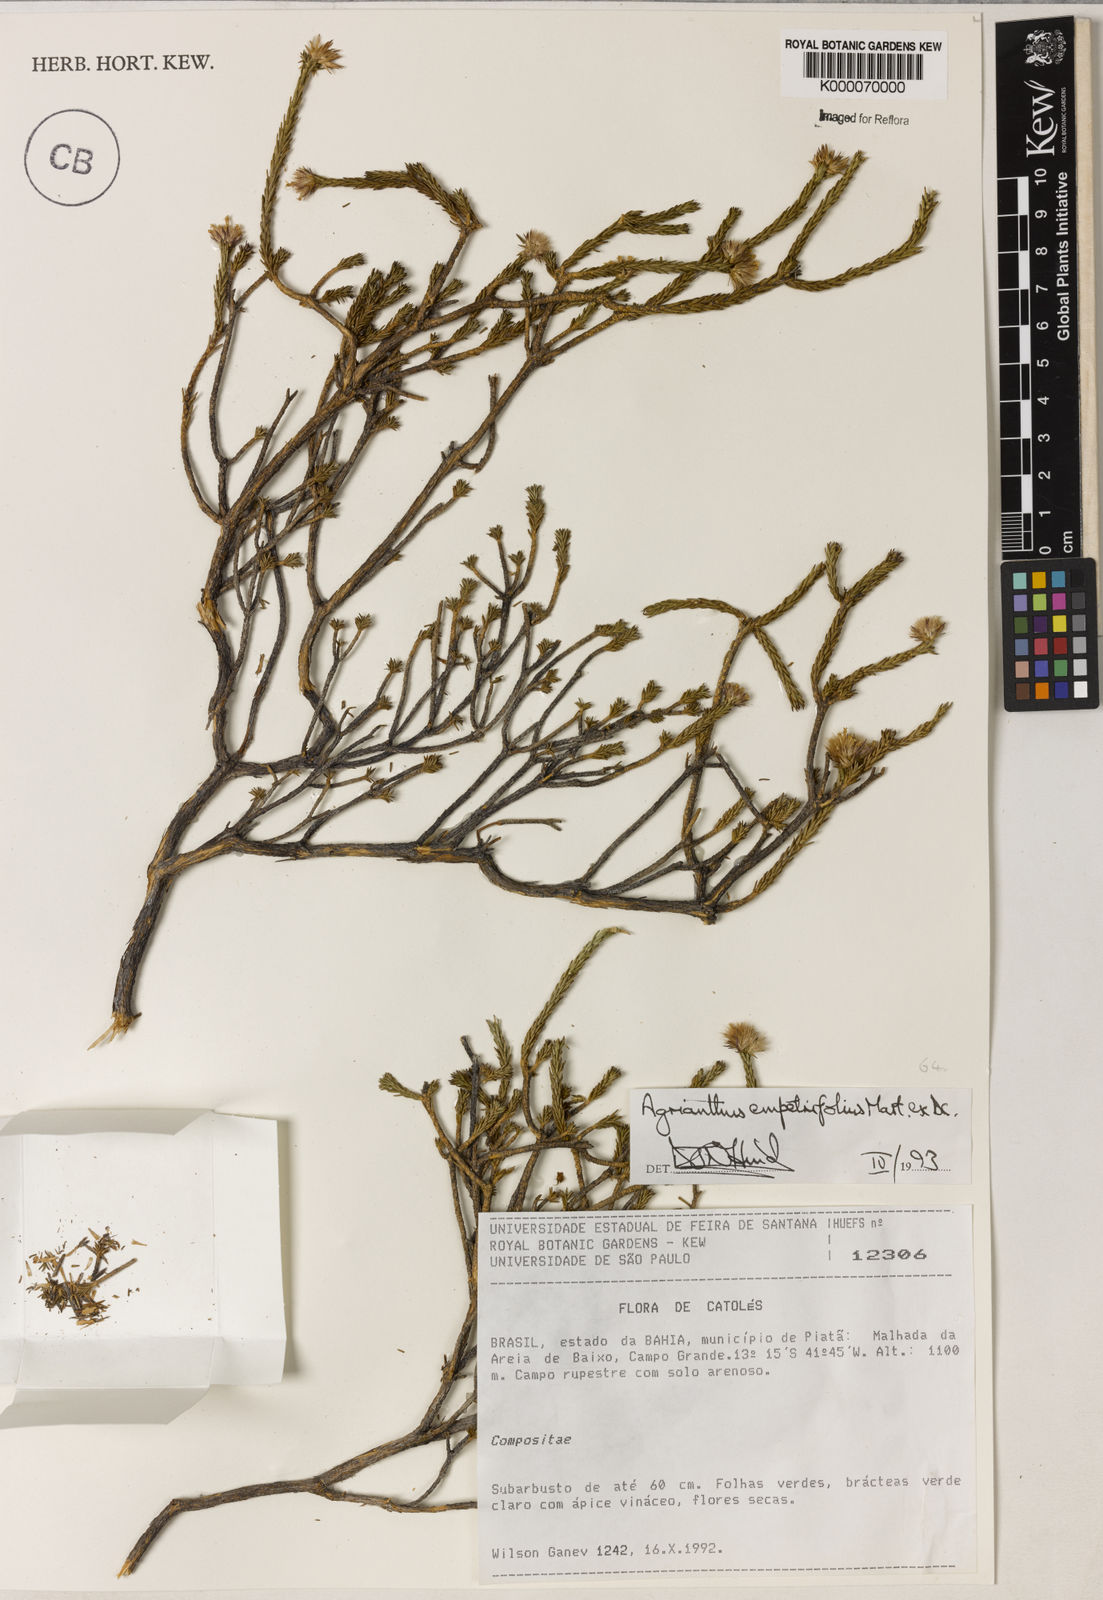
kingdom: Plantae
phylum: Tracheophyta
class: Magnoliopsida
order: Asterales
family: Asteraceae
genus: Agrianthus
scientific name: Agrianthus
